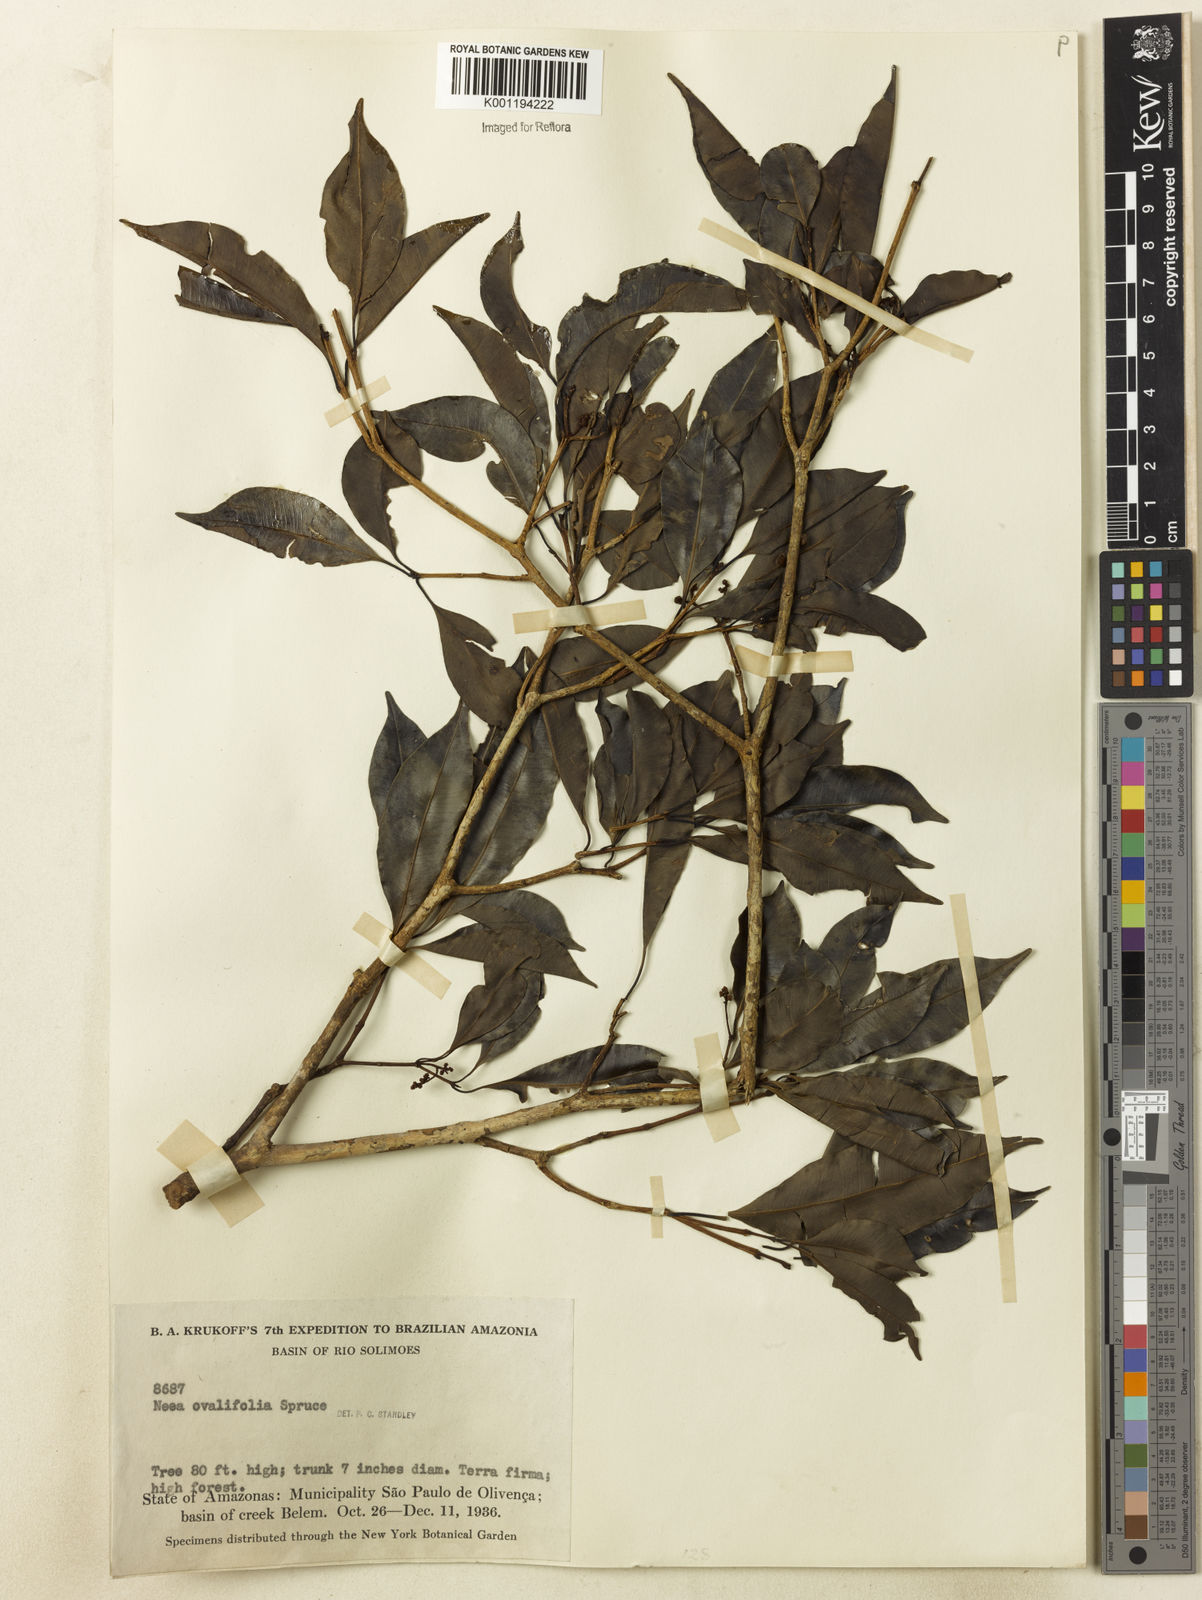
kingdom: Plantae
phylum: Tracheophyta
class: Magnoliopsida
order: Caryophyllales
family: Nyctaginaceae
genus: Neea
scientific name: Neea ovalifolia
